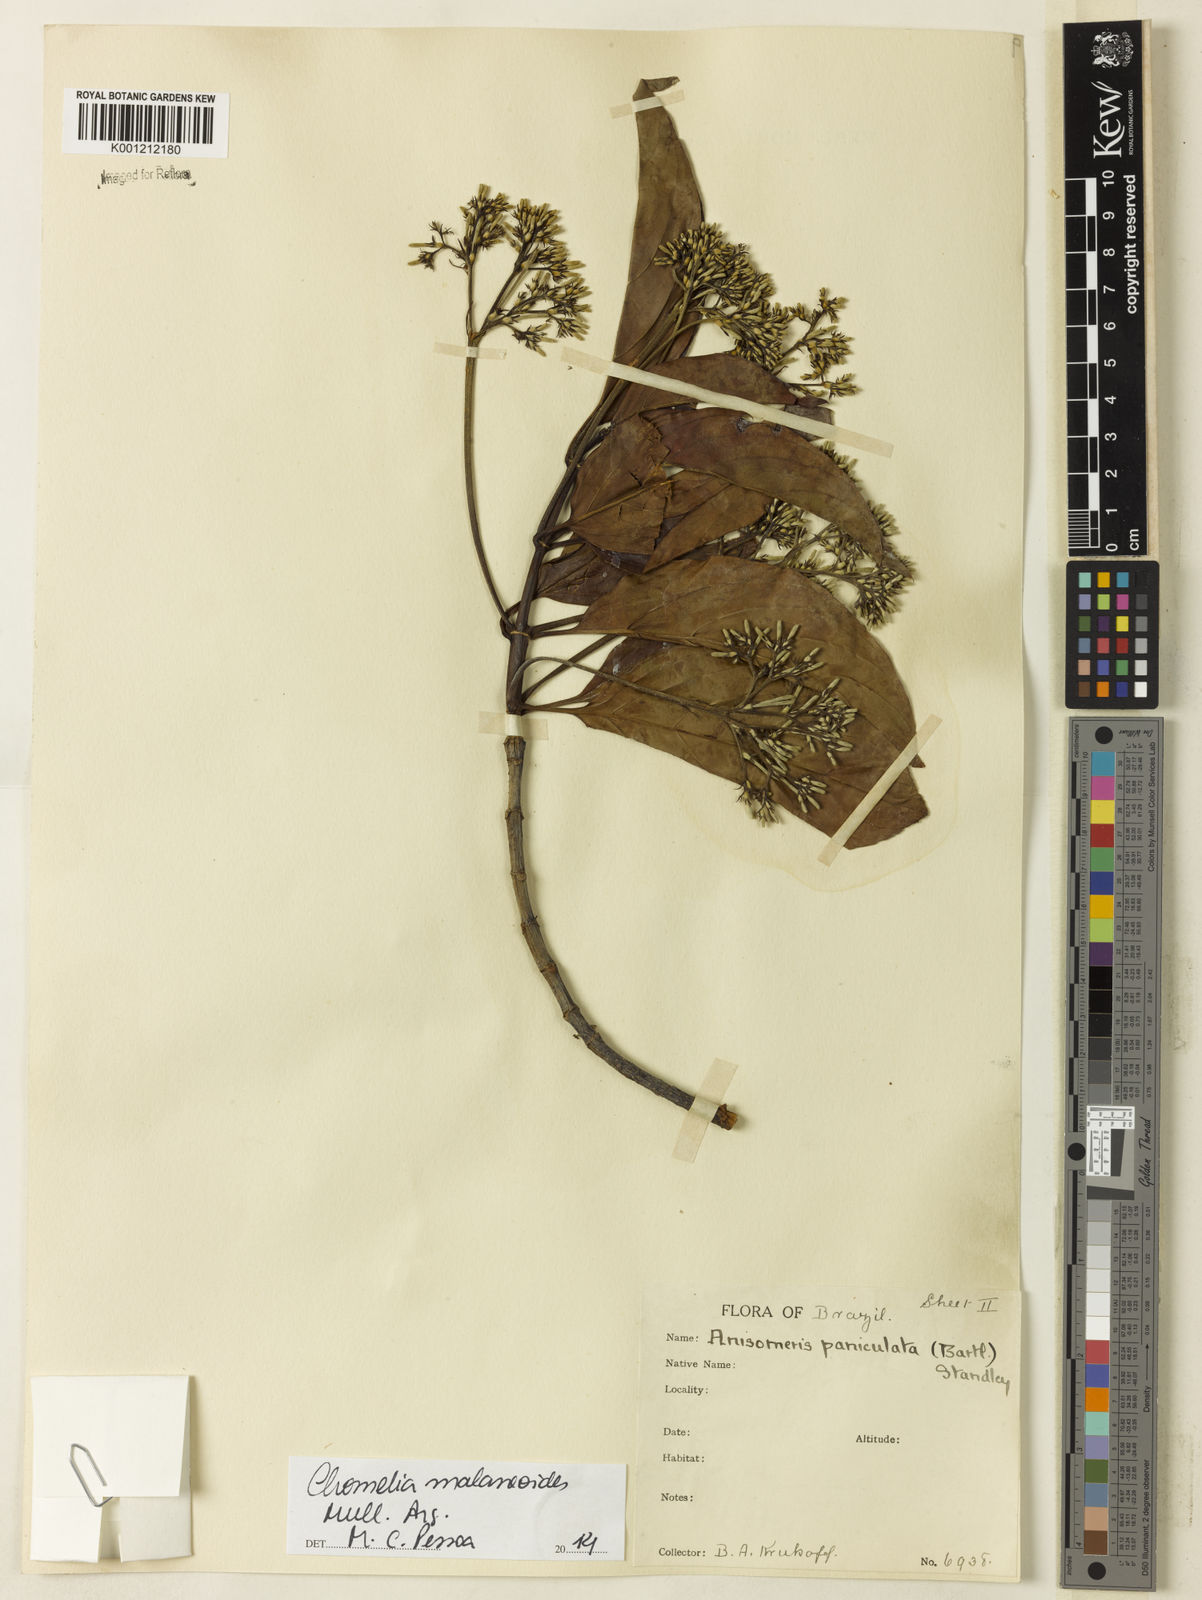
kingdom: Plantae
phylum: Tracheophyta
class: Magnoliopsida
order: Gentianales
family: Rubiaceae
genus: Chomelia
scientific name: Chomelia
